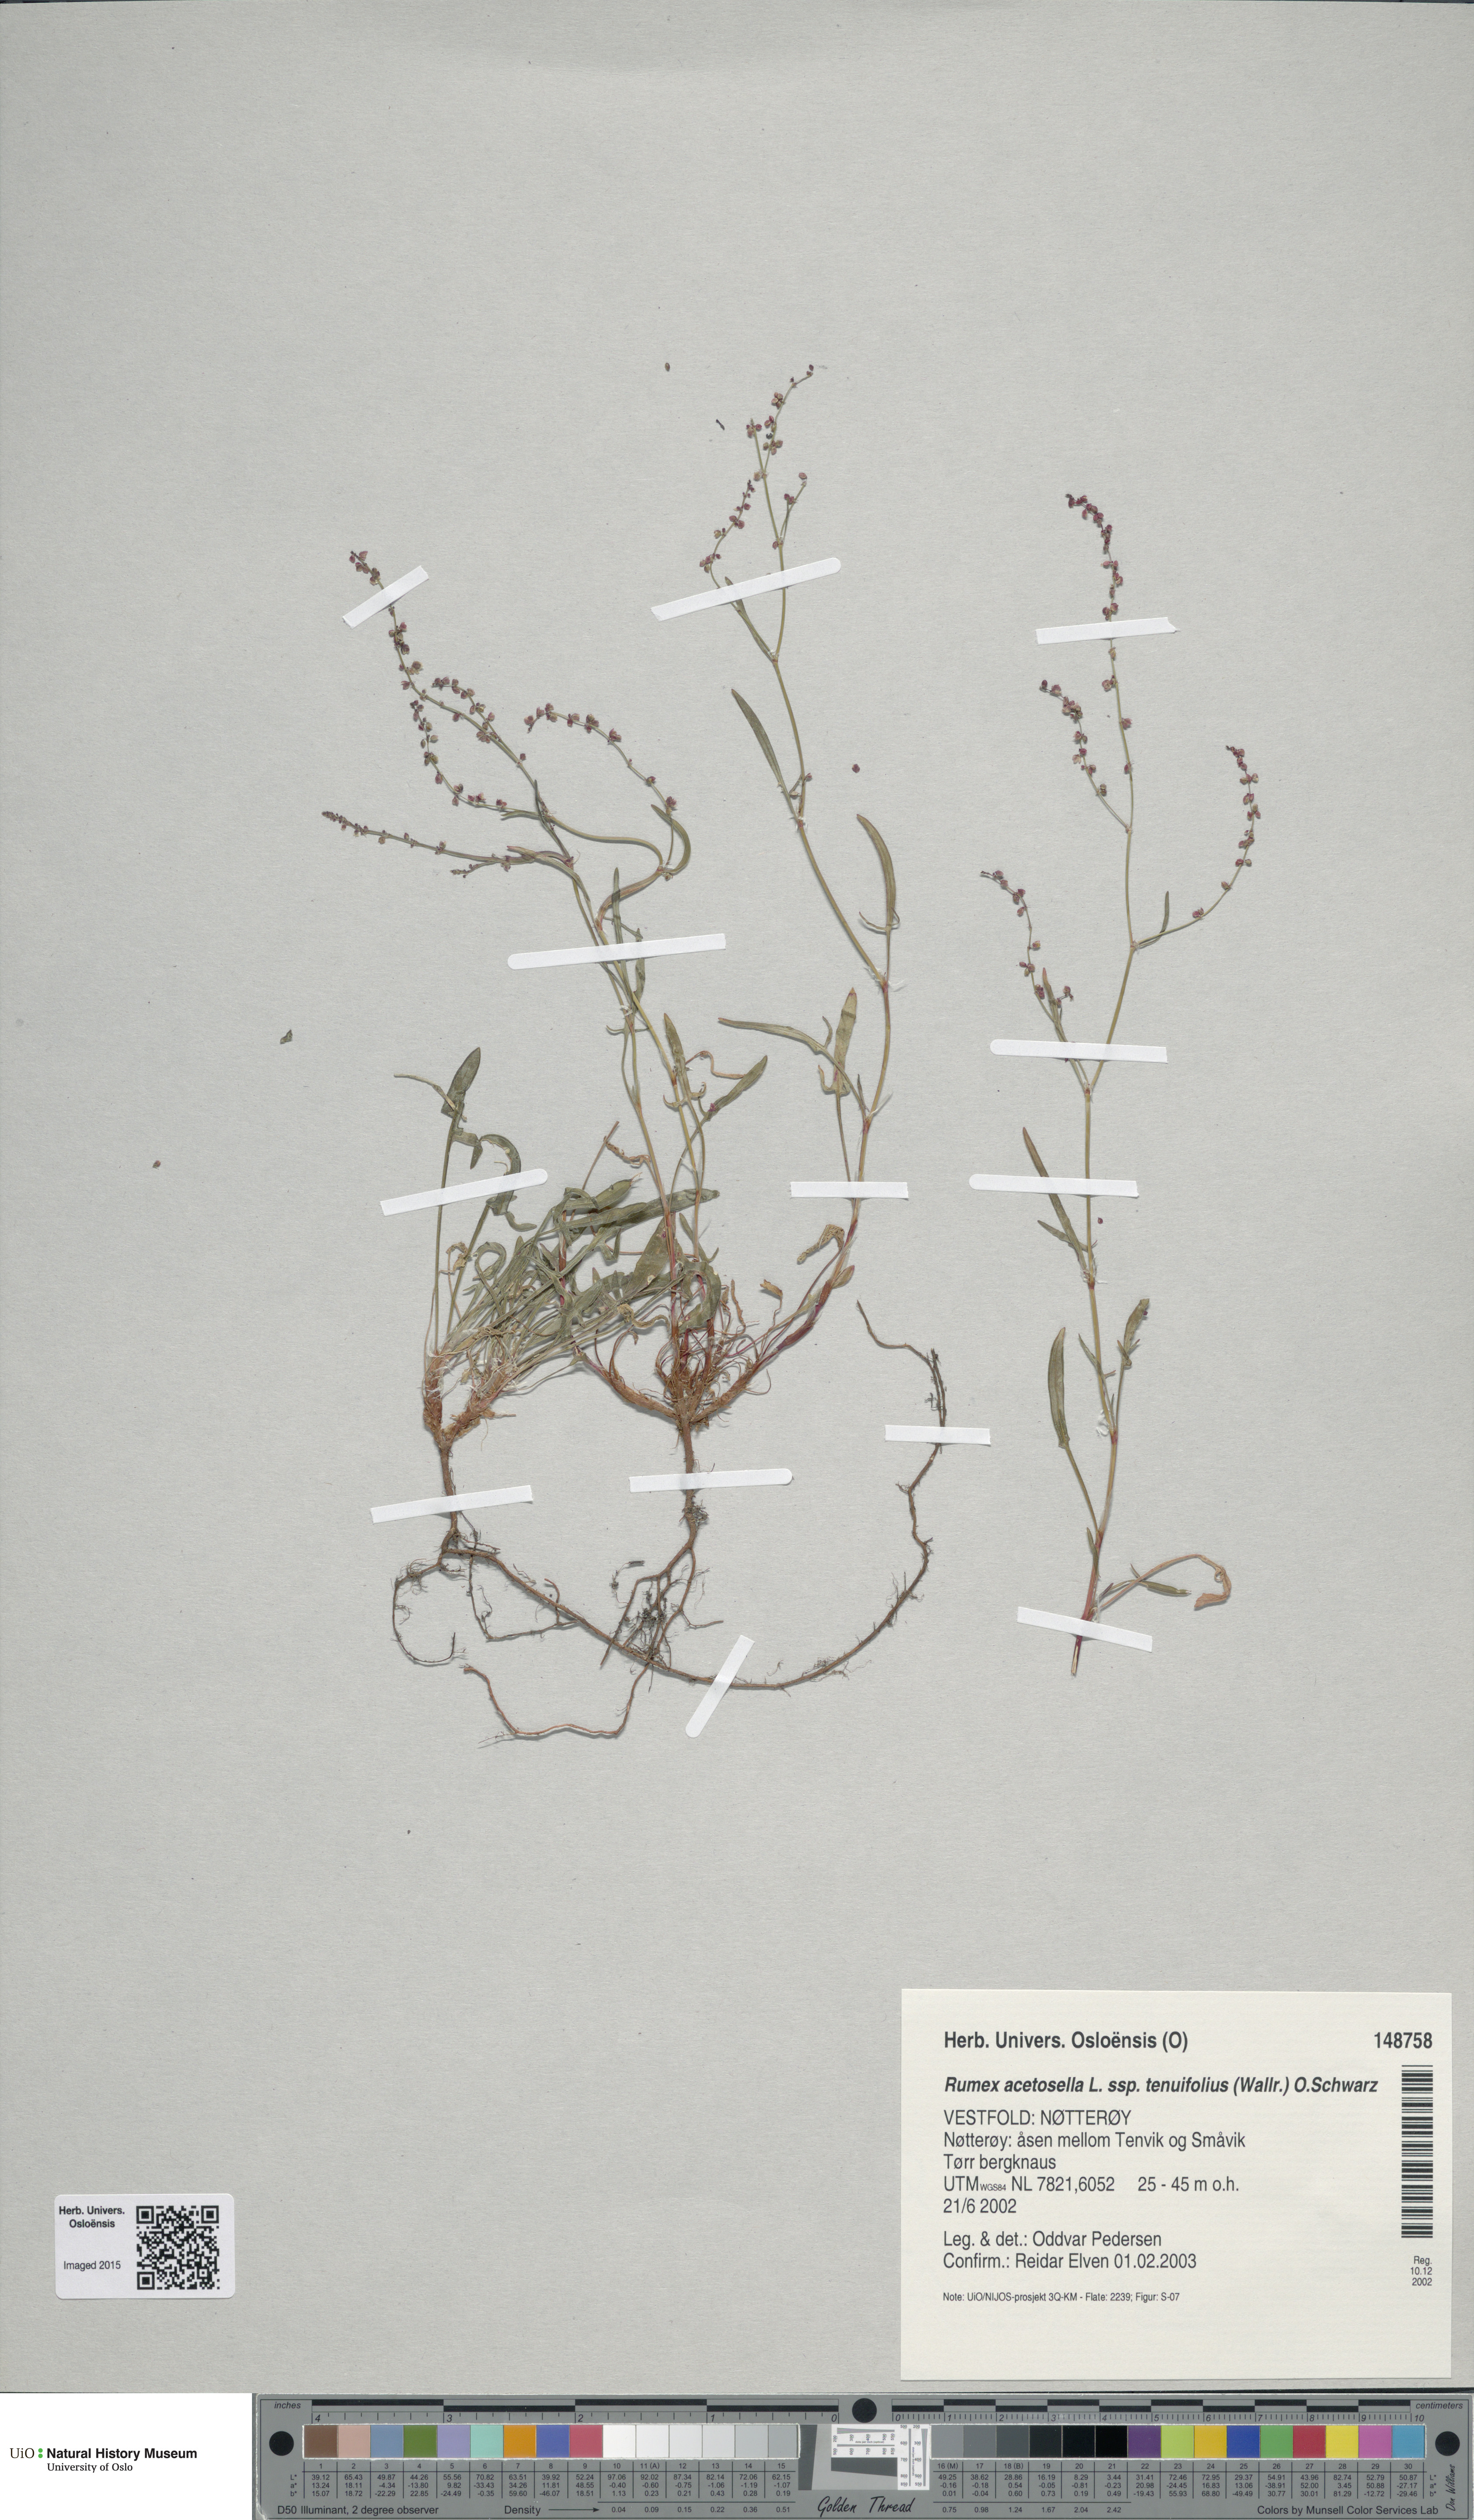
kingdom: Plantae
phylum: Tracheophyta
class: Magnoliopsida
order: Caryophyllales
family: Polygonaceae
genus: Rumex
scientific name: Rumex acetosella
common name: Common sheep sorrel
